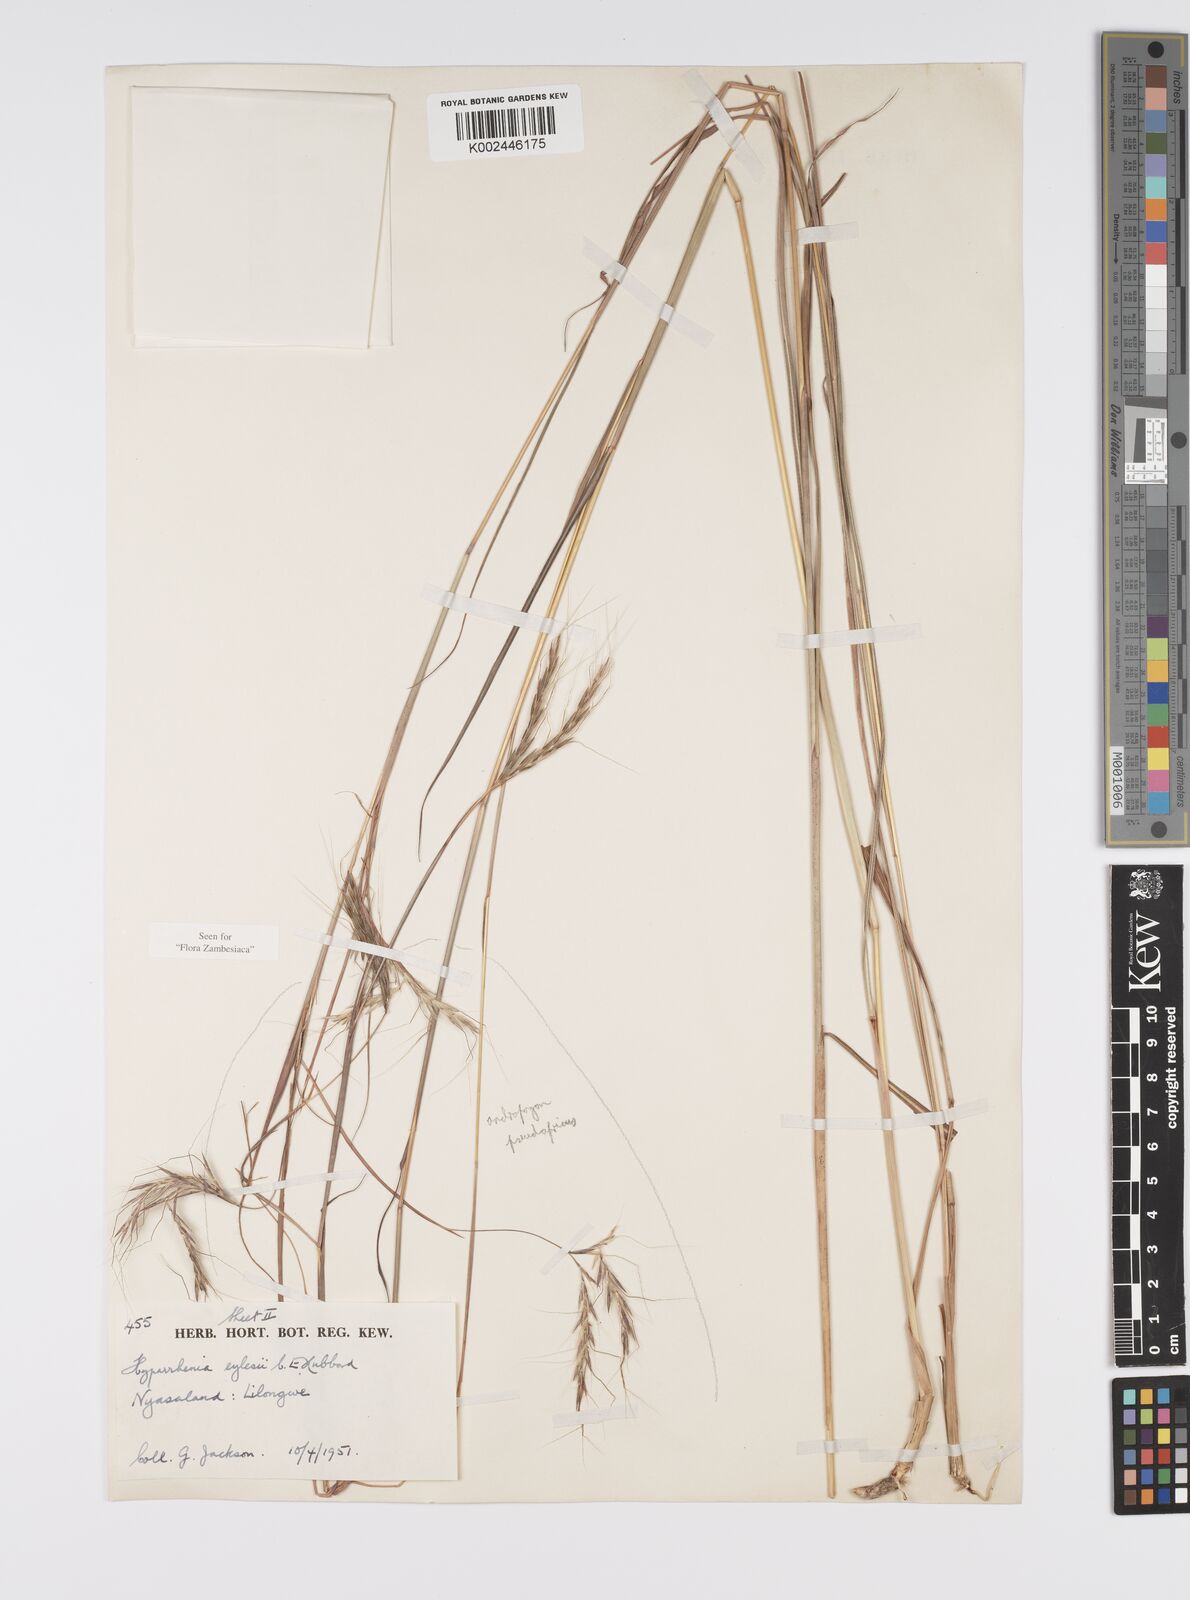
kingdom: Plantae
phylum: Tracheophyta
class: Liliopsida
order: Poales
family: Poaceae
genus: Elymandra
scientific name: Elymandra grallata
